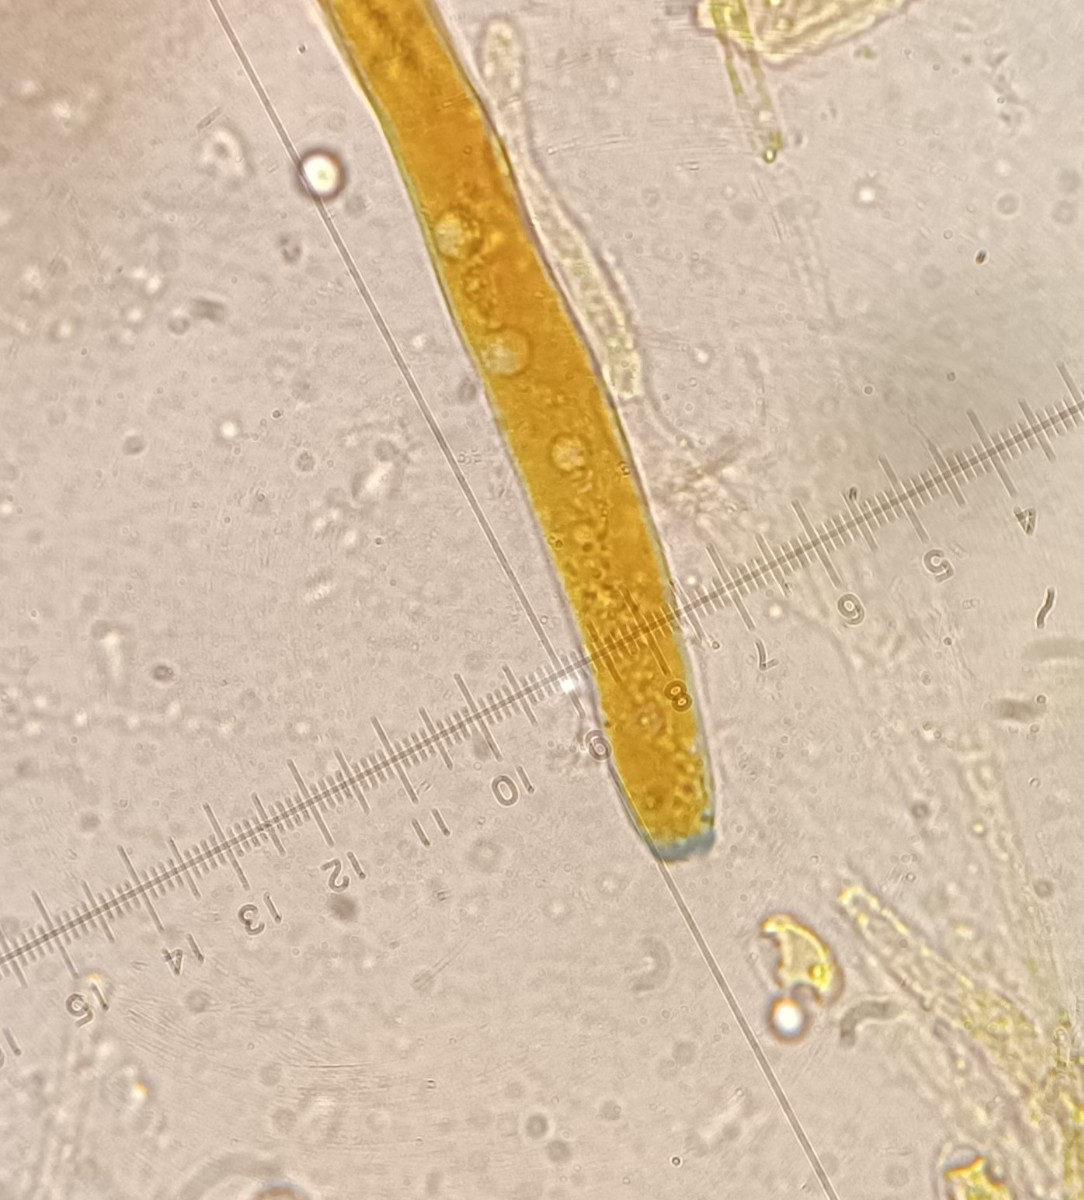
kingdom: Fungi
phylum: Ascomycota
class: Pezizomycetes
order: Pezizales
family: Pezizaceae
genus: Peziza
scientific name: Peziza varia
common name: Ved-bægersvamp
